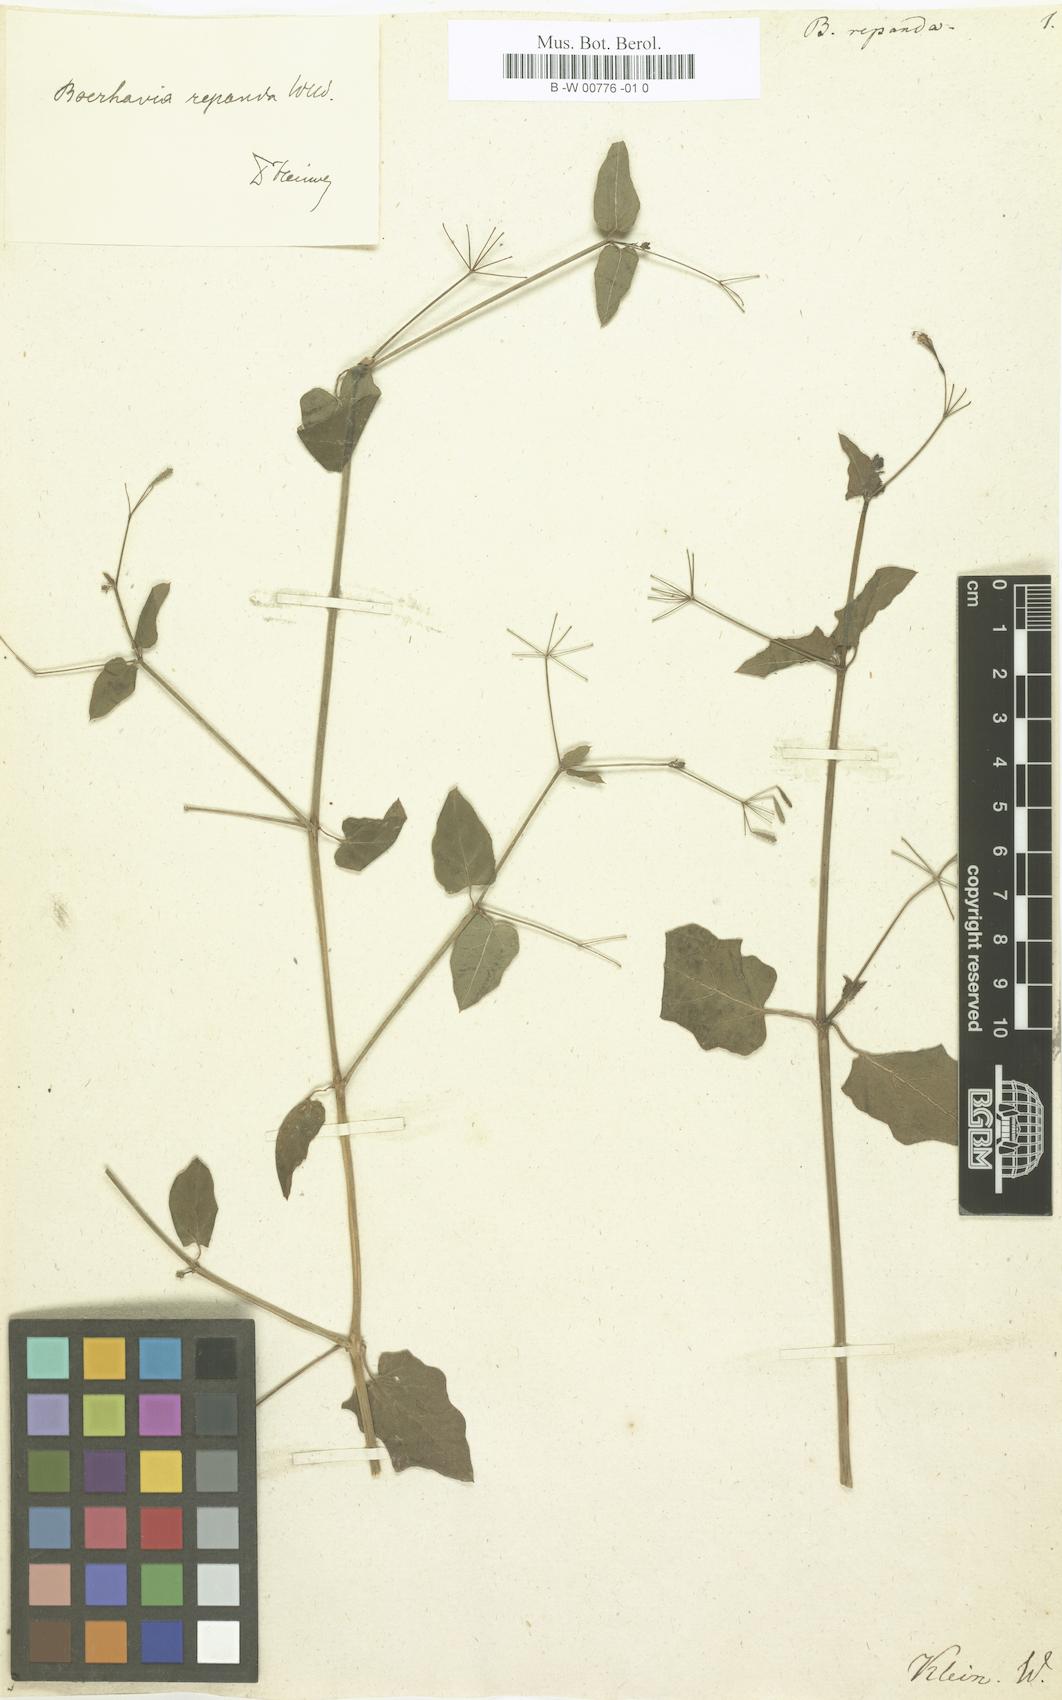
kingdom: Plantae
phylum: Tracheophyta
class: Magnoliopsida
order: Caryophyllales
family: Nyctaginaceae
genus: Boerhavia
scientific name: Boerhavia repanda
